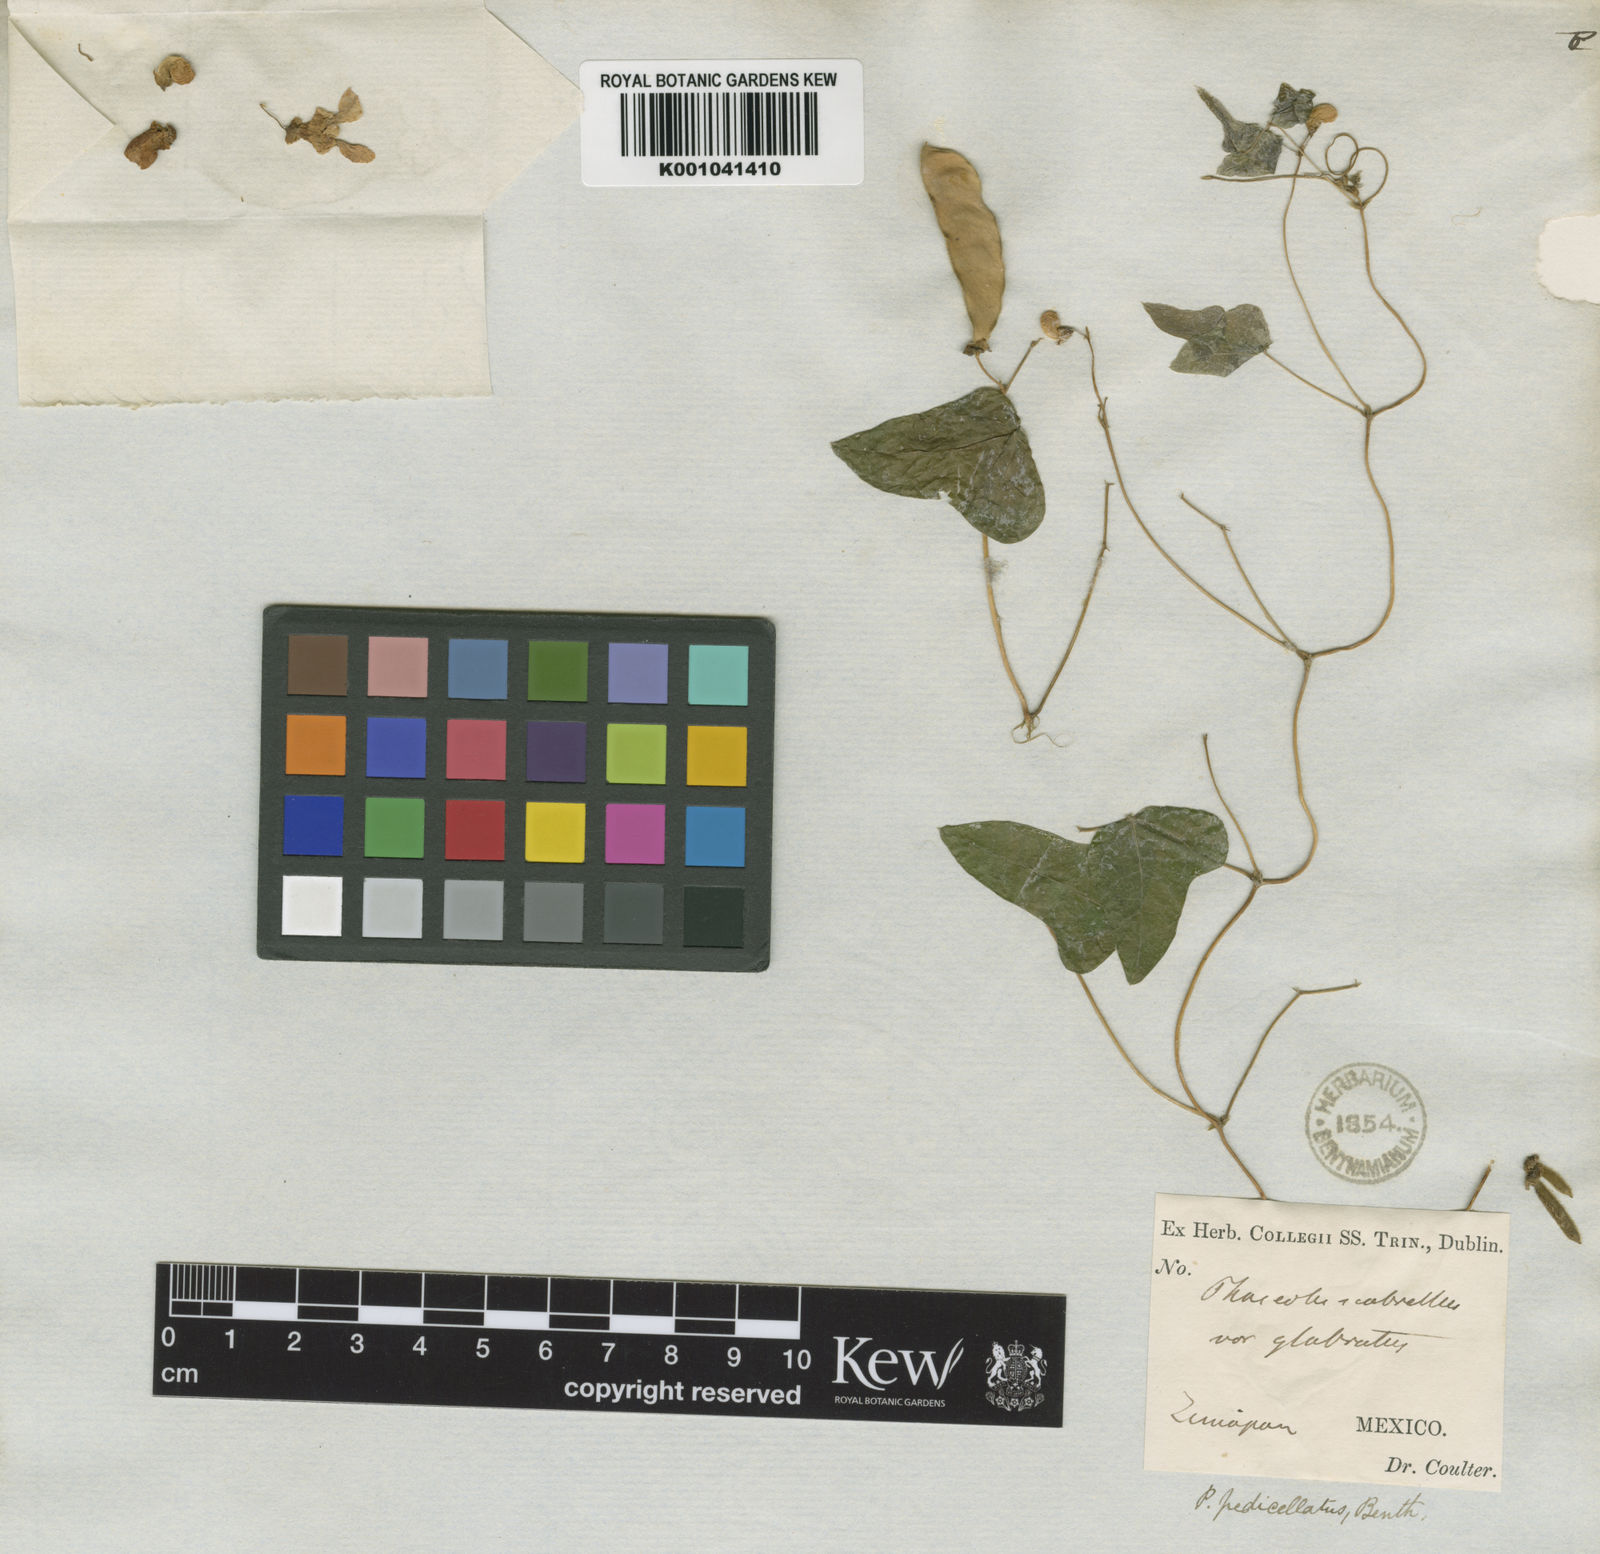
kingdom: Plantae
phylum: Tracheophyta
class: Magnoliopsida
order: Fabales
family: Fabaceae
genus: Phaseolus
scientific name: Phaseolus pedicellatus
